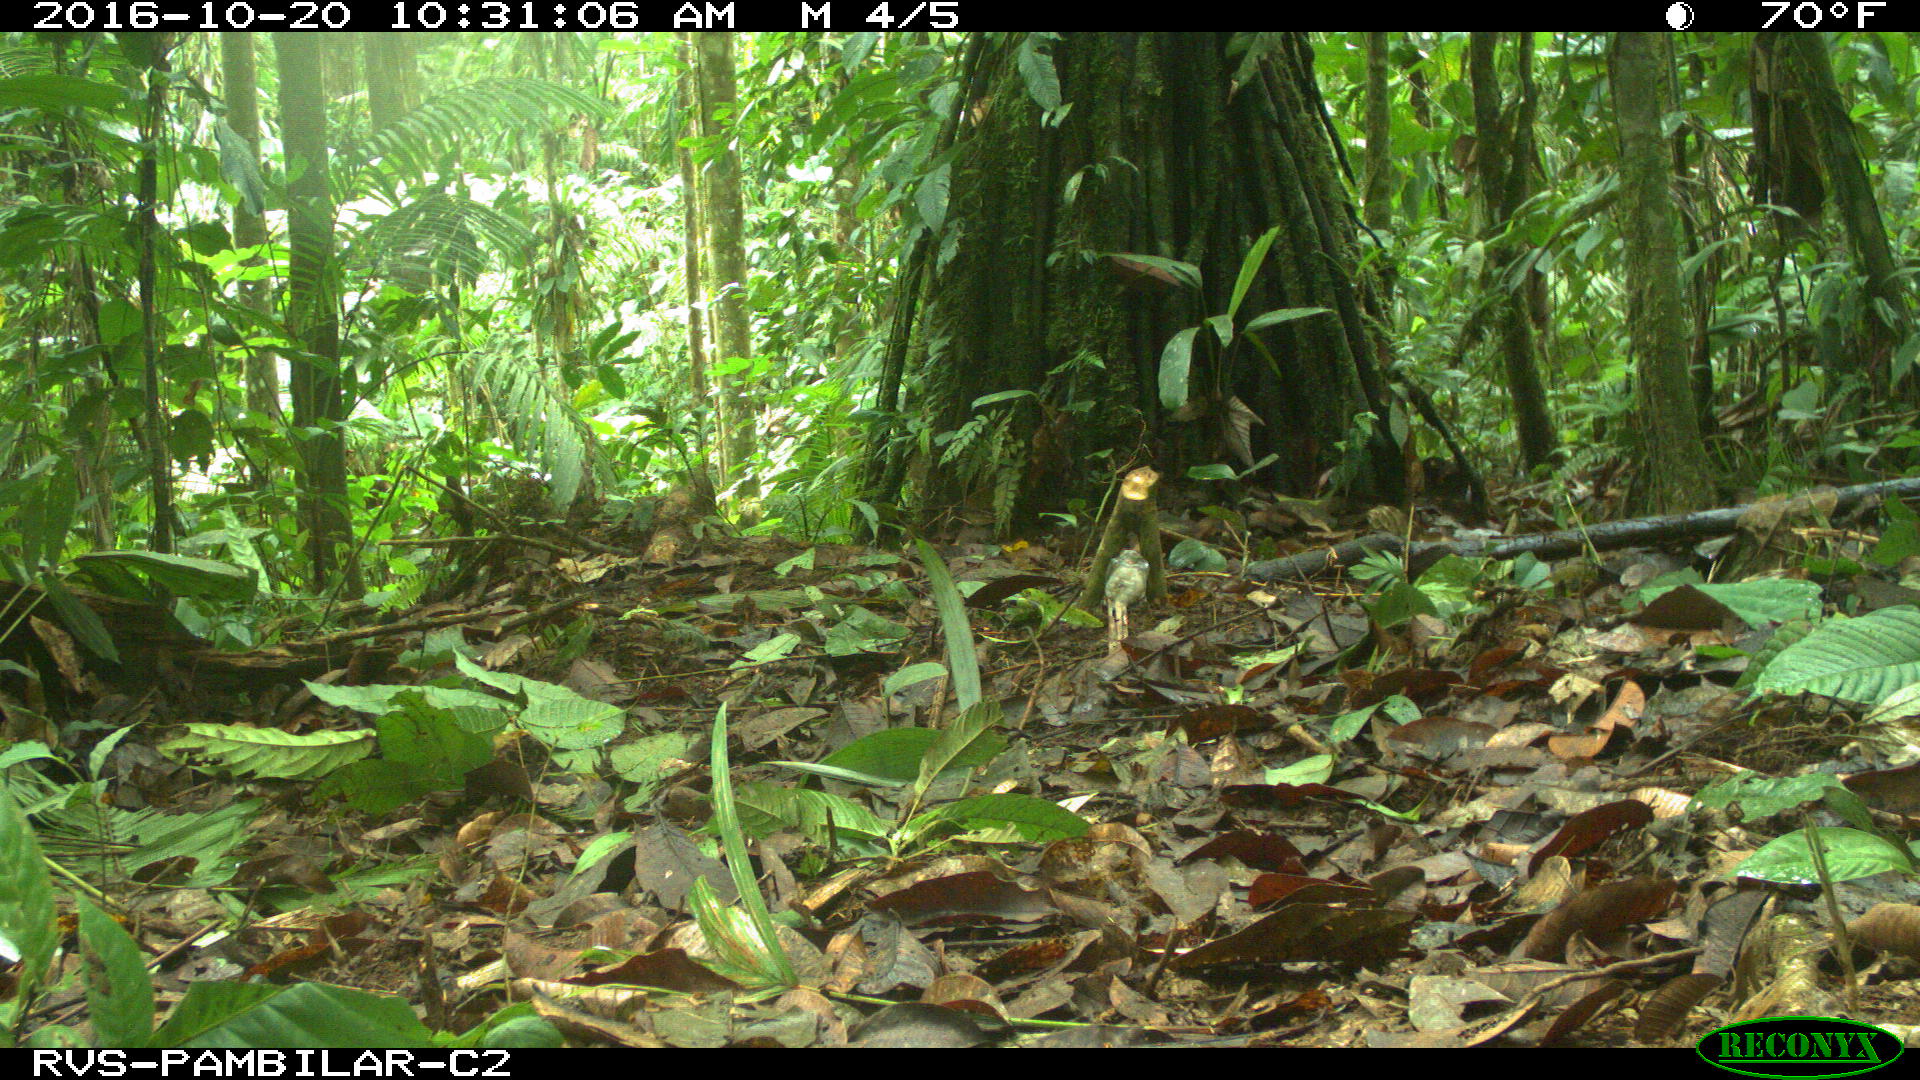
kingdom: Animalia
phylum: Chordata
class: Mammalia
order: Rodentia
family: Dasyproctidae
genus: Dasyprocta
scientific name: Dasyprocta punctata
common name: Central american agouti
